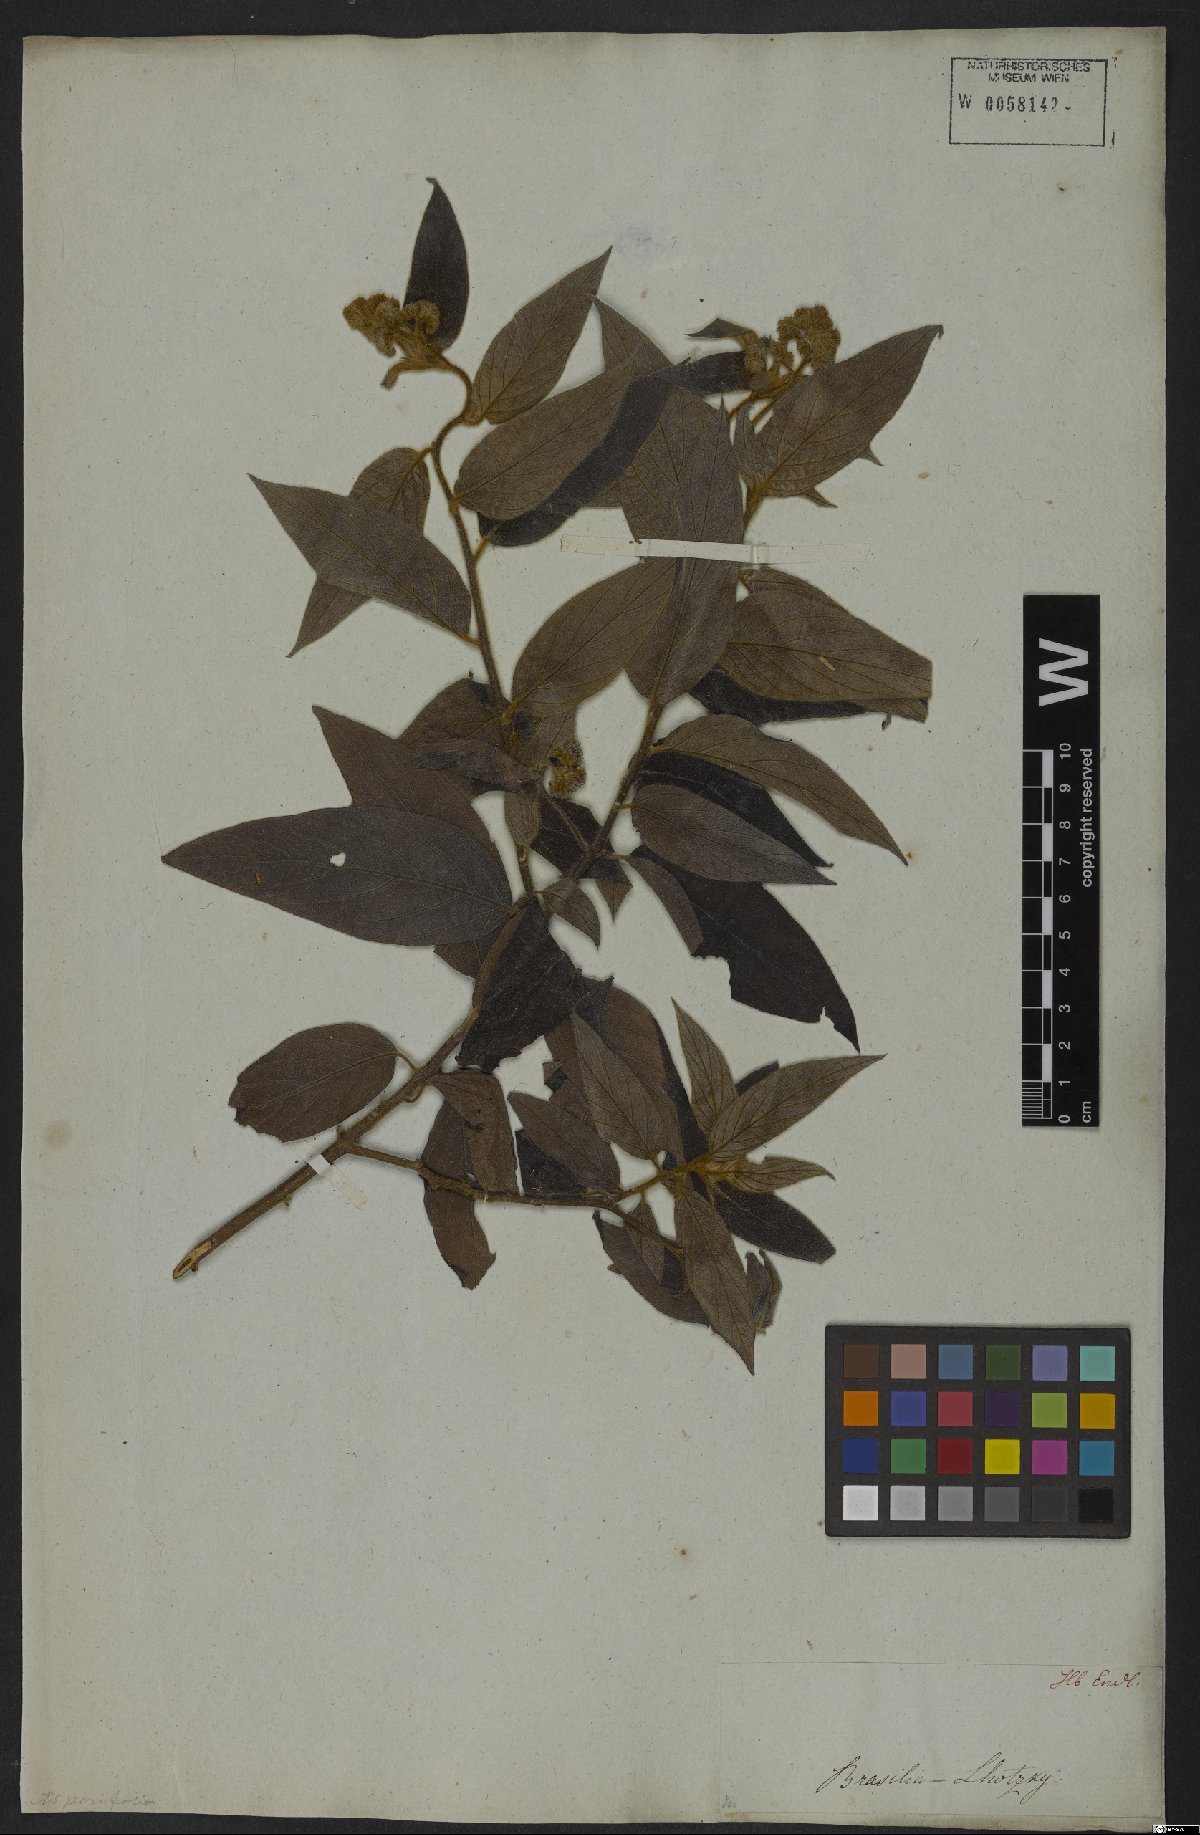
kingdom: Plantae
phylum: Tracheophyta
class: Magnoliopsida
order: Boraginales
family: Heliotropiaceae
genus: Myriopus
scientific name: Myriopus salzmannii
